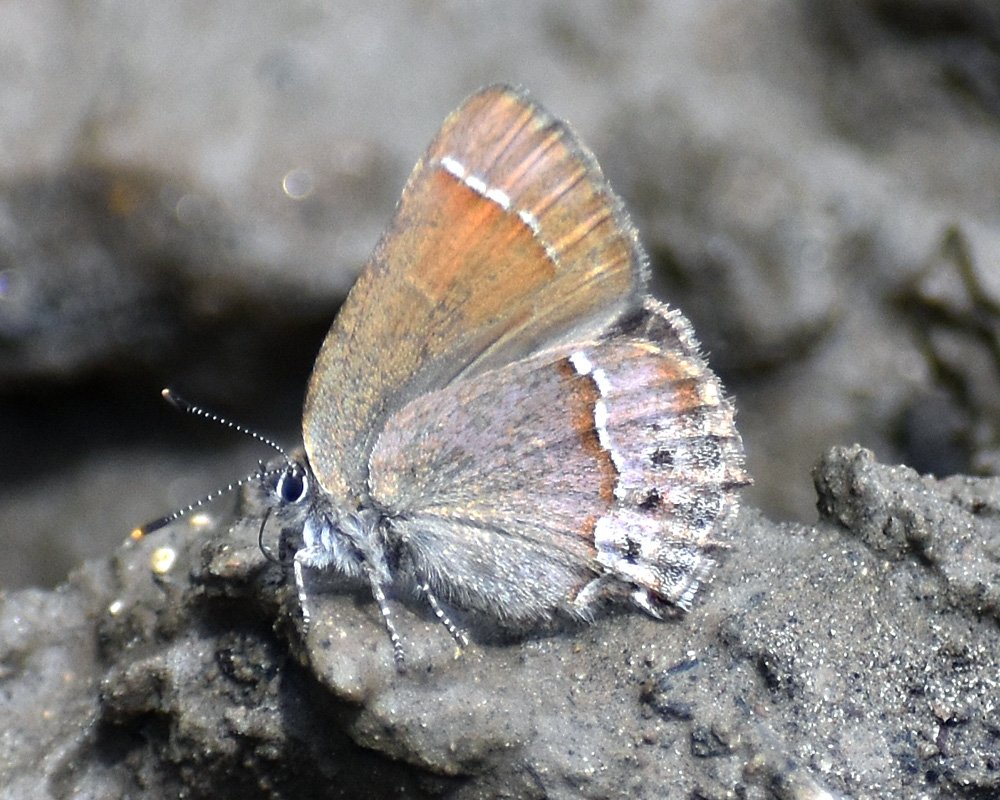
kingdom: Animalia
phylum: Arthropoda
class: Insecta
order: Lepidoptera
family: Lycaenidae
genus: Mitoura
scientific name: Mitoura nelsoni
